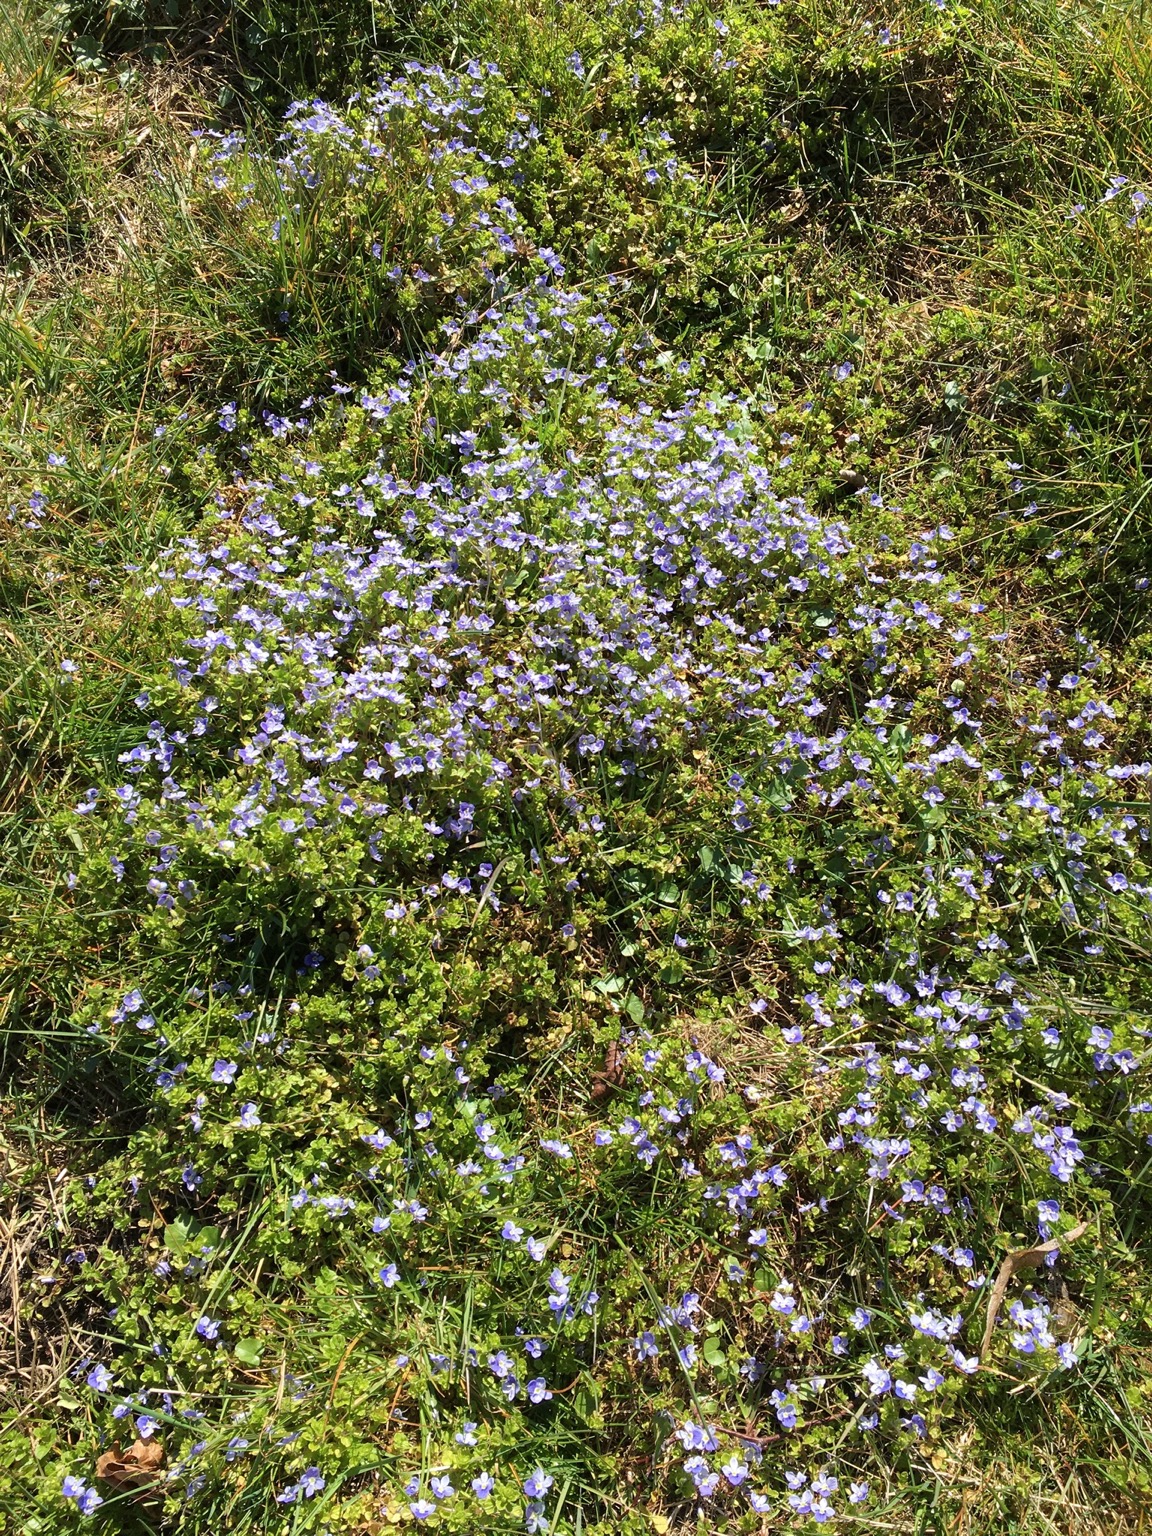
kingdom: Plantae
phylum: Tracheophyta
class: Magnoliopsida
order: Lamiales
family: Plantaginaceae
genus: Veronica
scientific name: Veronica filiformis
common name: Tråd-ærenpris
